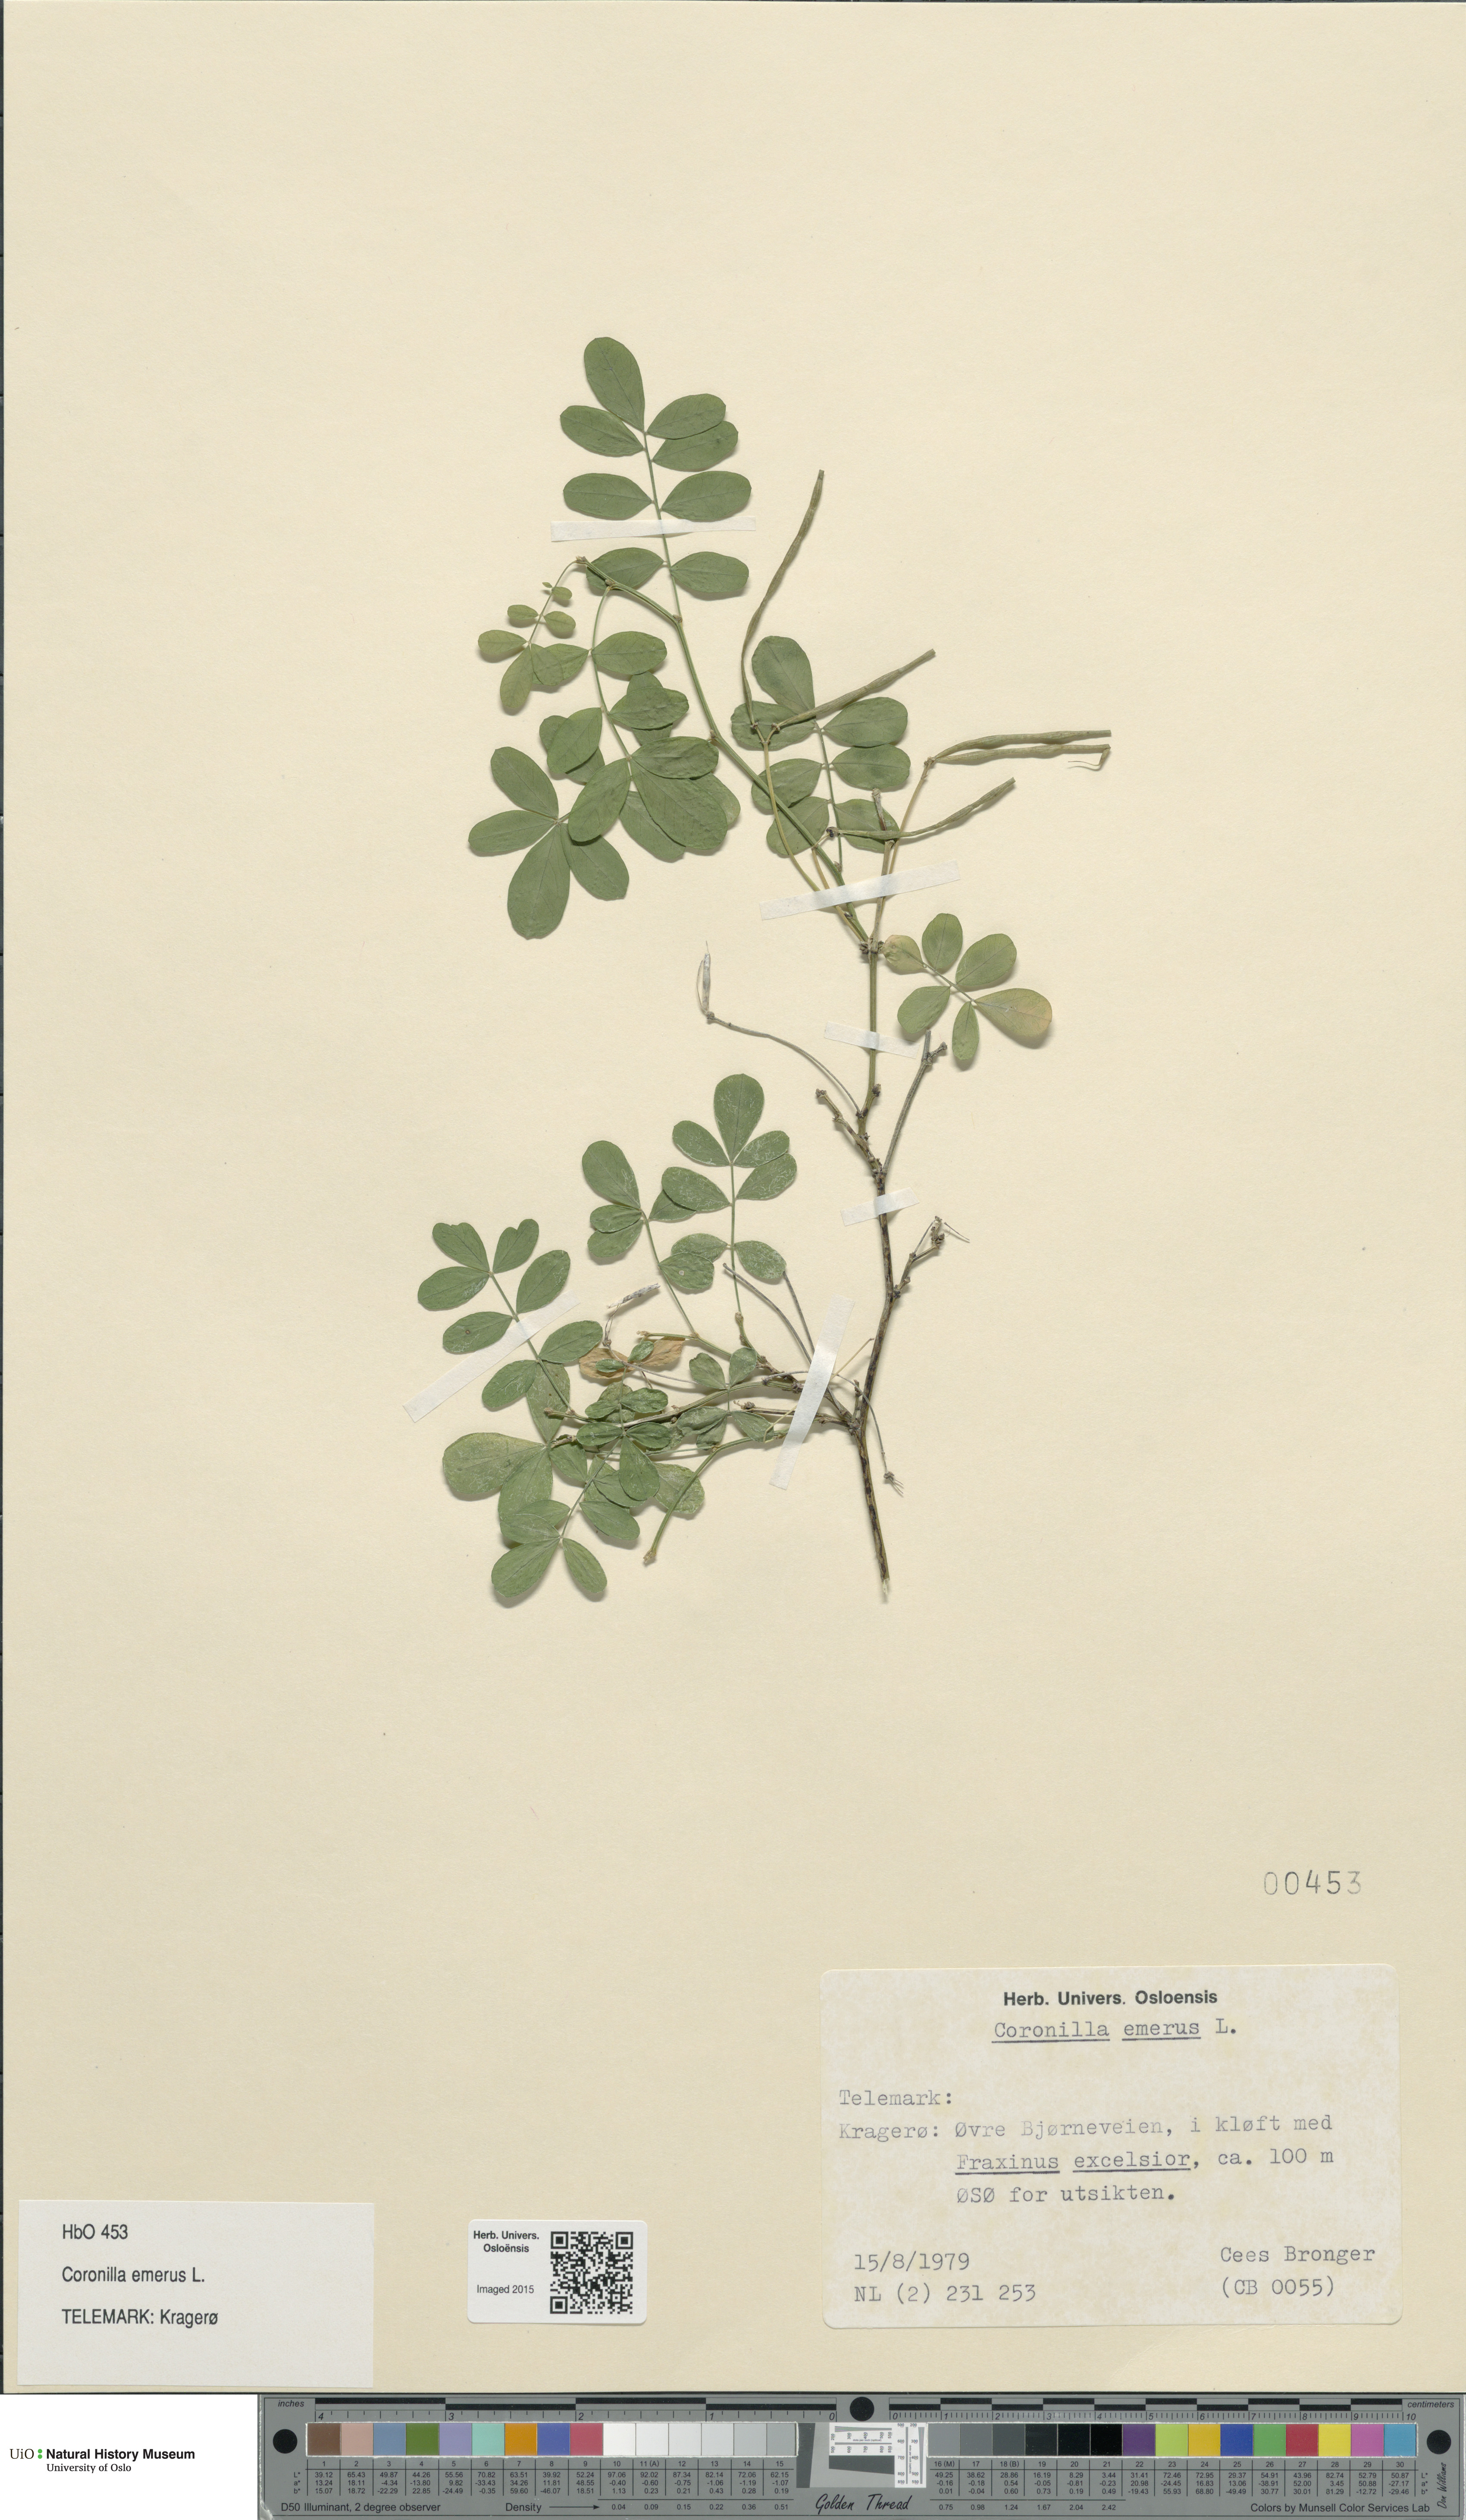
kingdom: Plantae
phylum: Tracheophyta
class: Magnoliopsida
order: Fabales
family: Fabaceae
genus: Hippocrepis
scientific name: Hippocrepis emerus
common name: Scorpion senna
